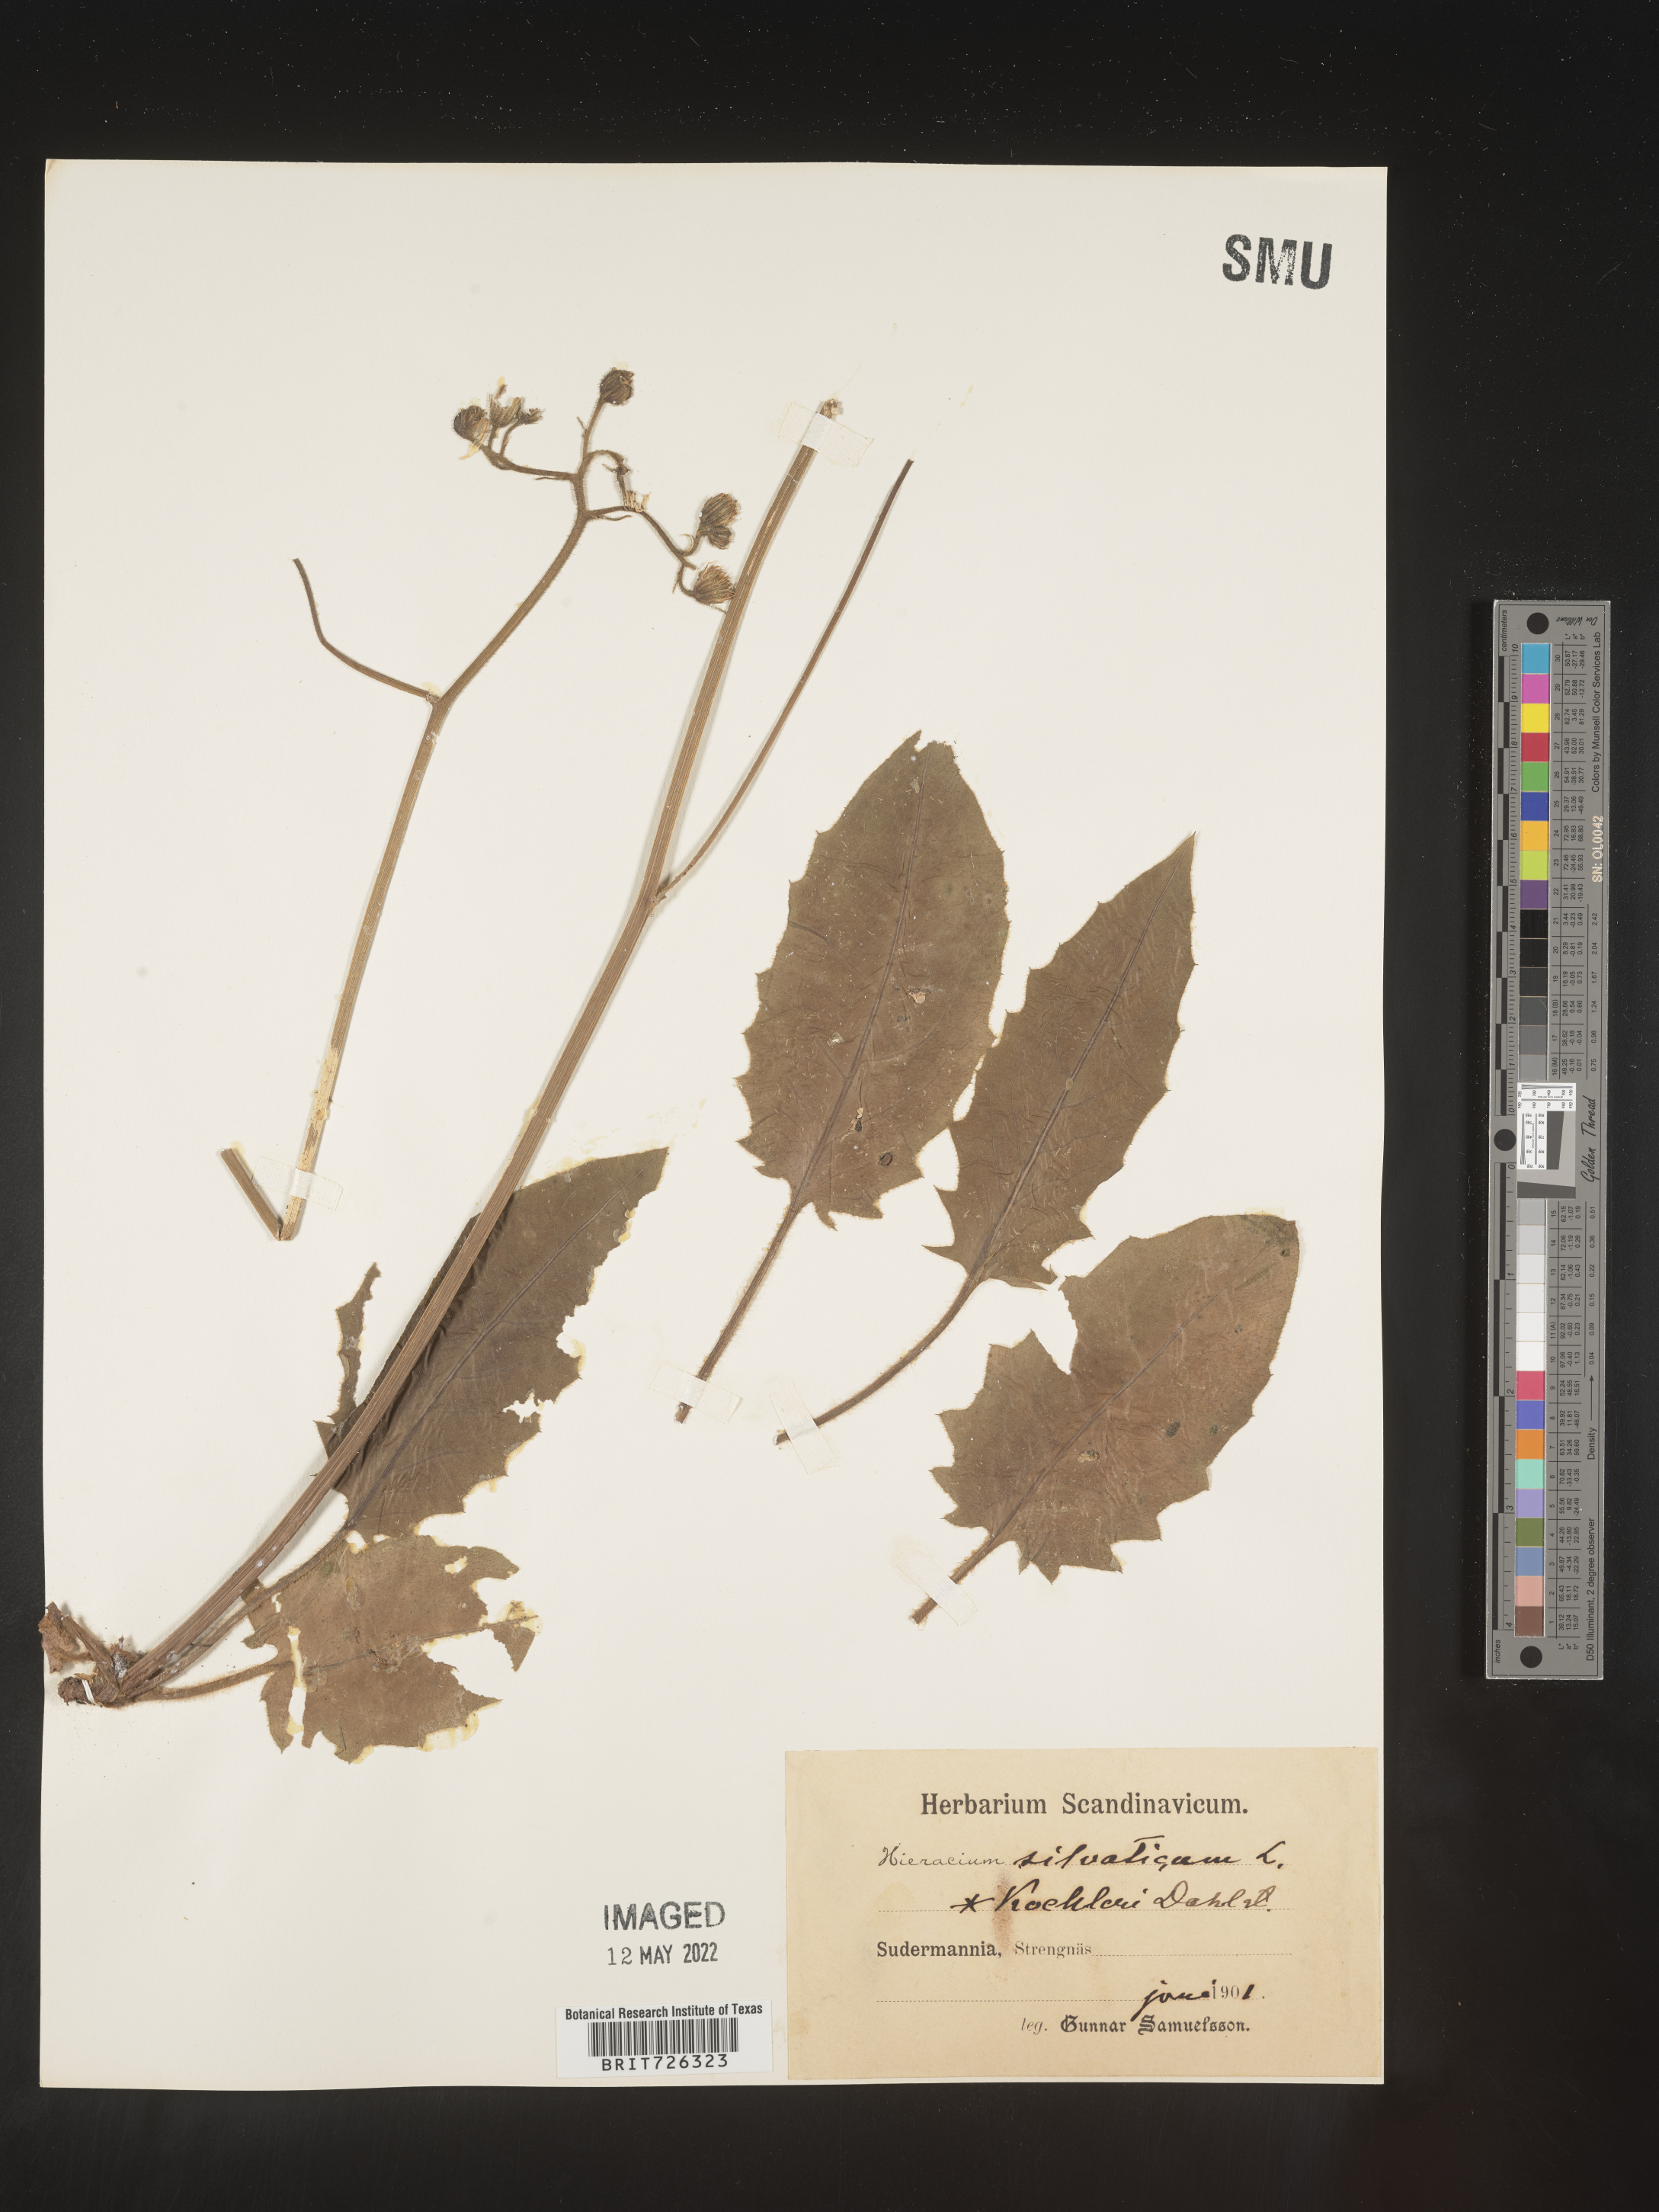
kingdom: Plantae
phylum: Tracheophyta
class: Magnoliopsida
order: Asterales
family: Asteraceae
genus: Hieracium
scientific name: Hieracium
